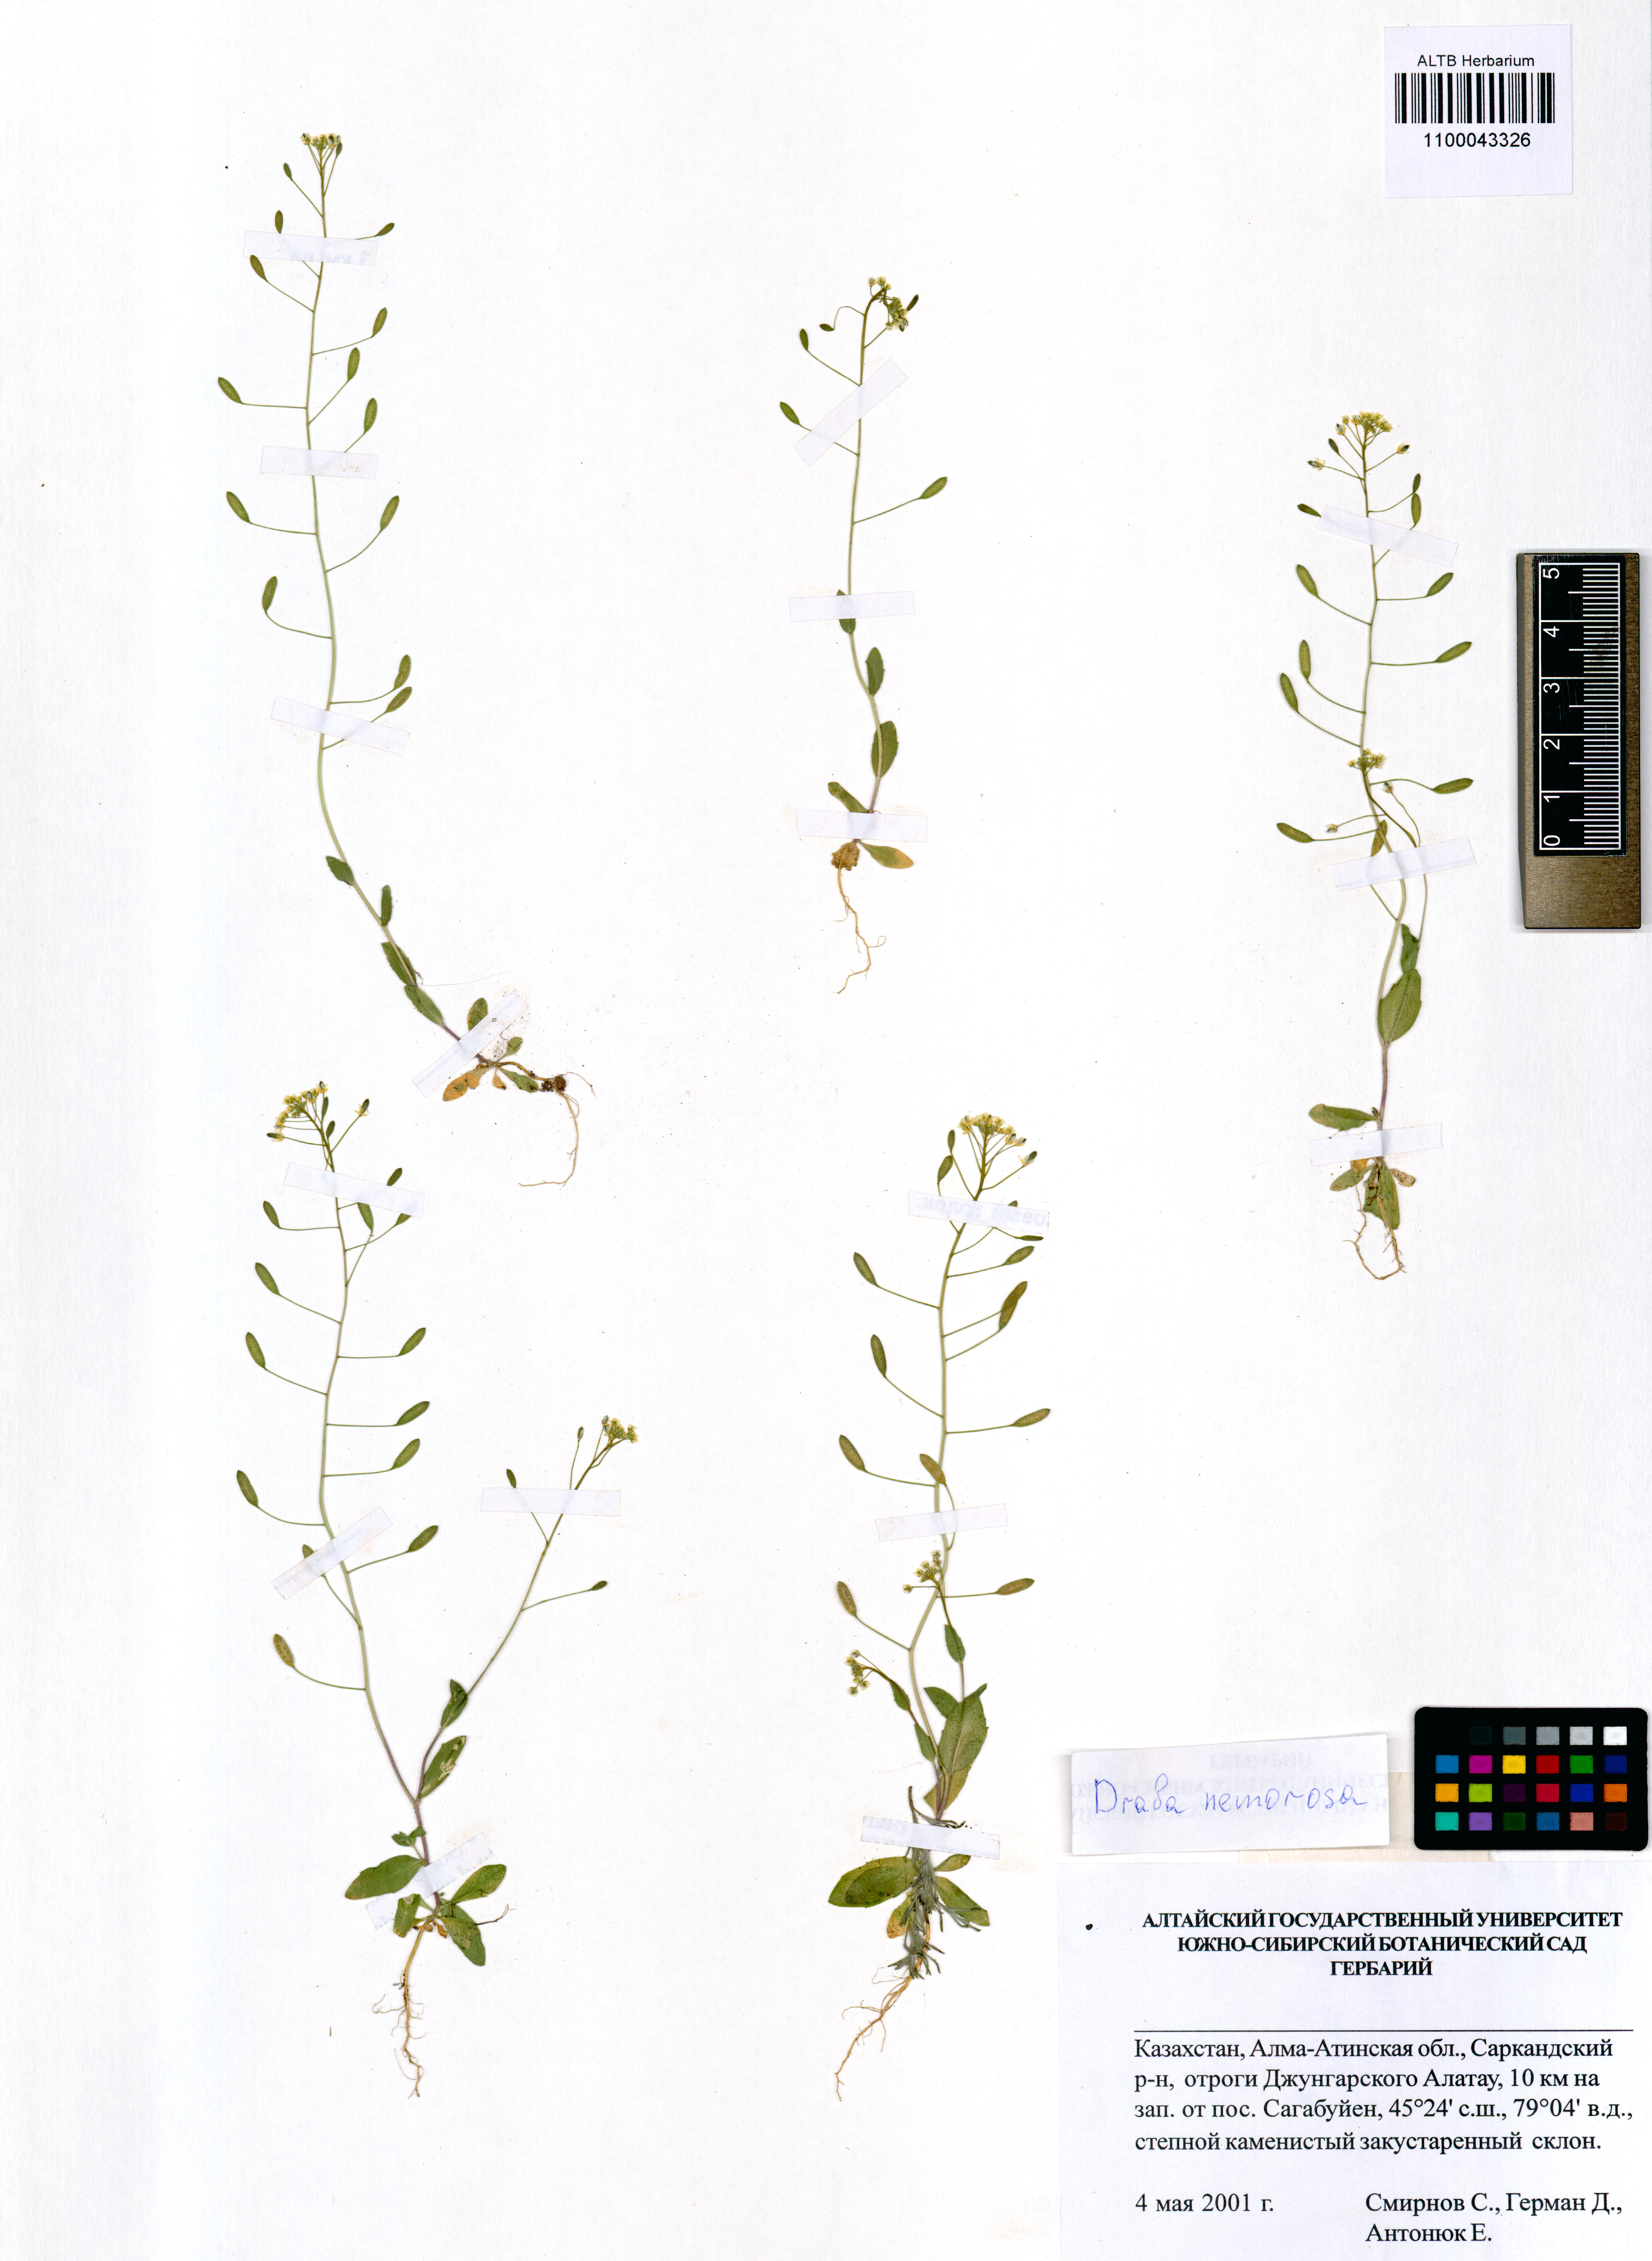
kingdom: Plantae
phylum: Tracheophyta
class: Magnoliopsida
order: Brassicales
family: Brassicaceae
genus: Draba
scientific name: Draba nemorosa
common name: Wood whitlow-grass
